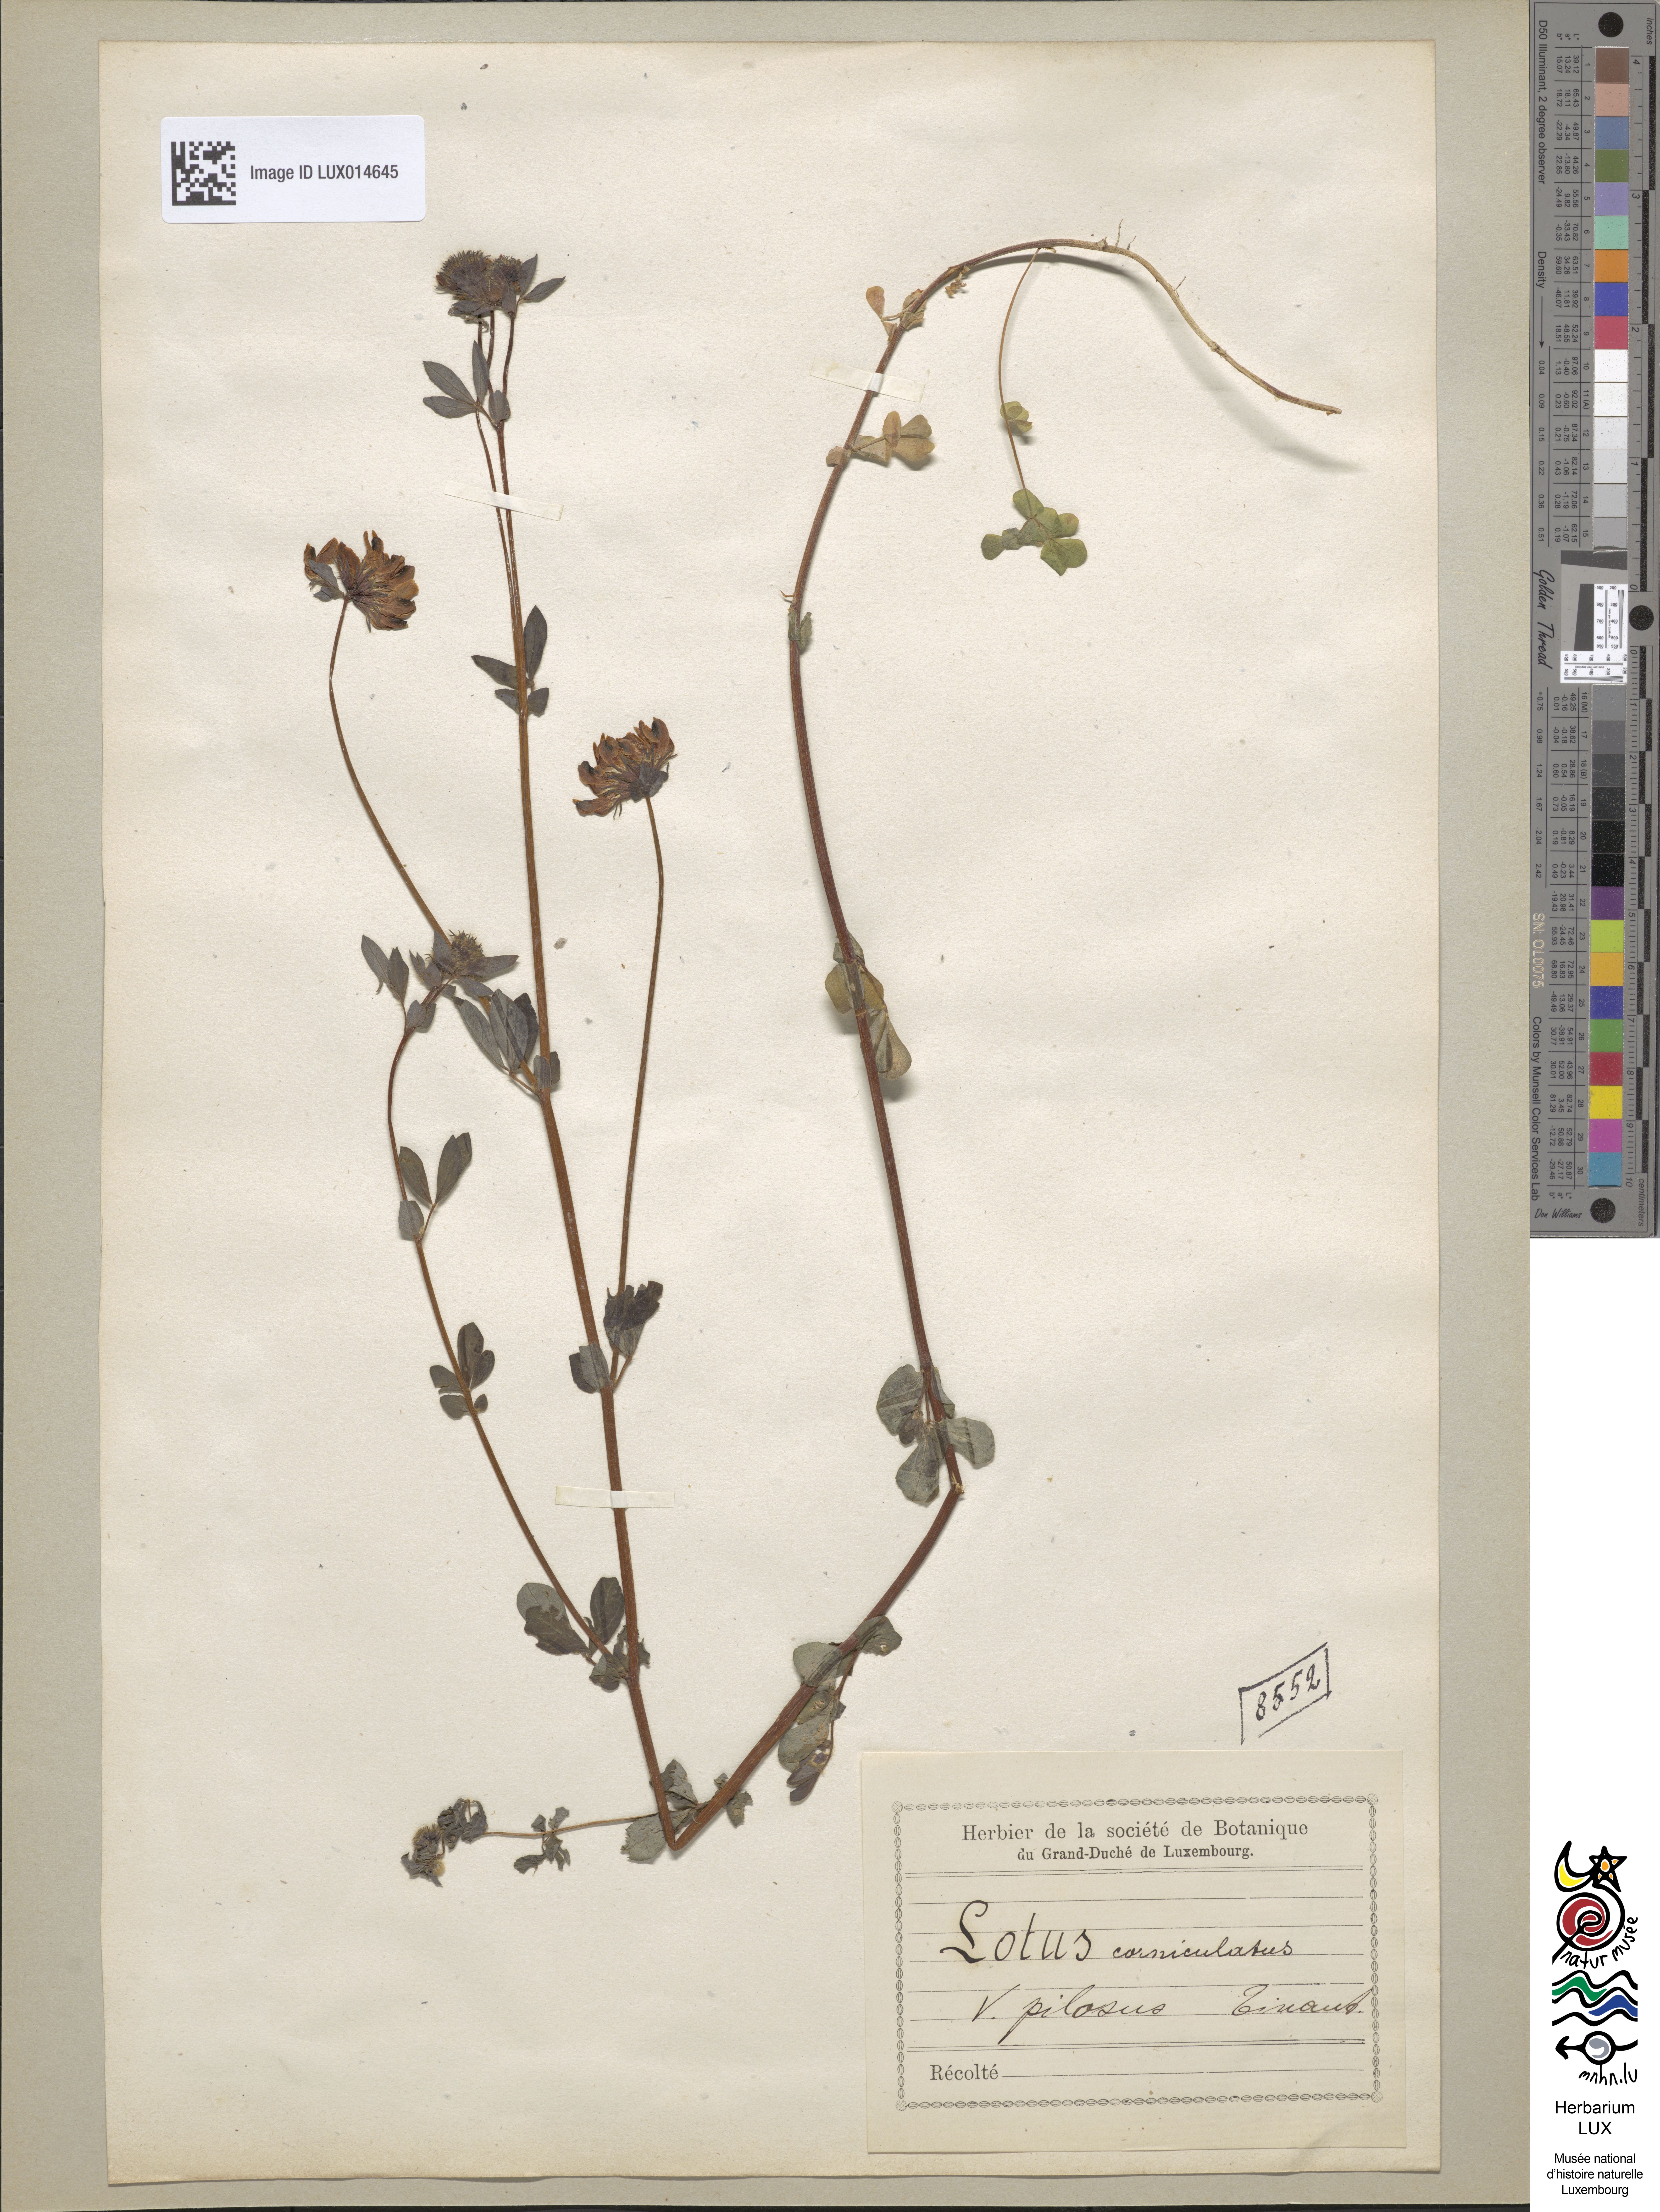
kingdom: Plantae
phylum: Tracheophyta
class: Magnoliopsida
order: Fabales
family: Fabaceae
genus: Lotus
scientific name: Lotus corniculatus
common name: Common bird's-foot-trefoil
